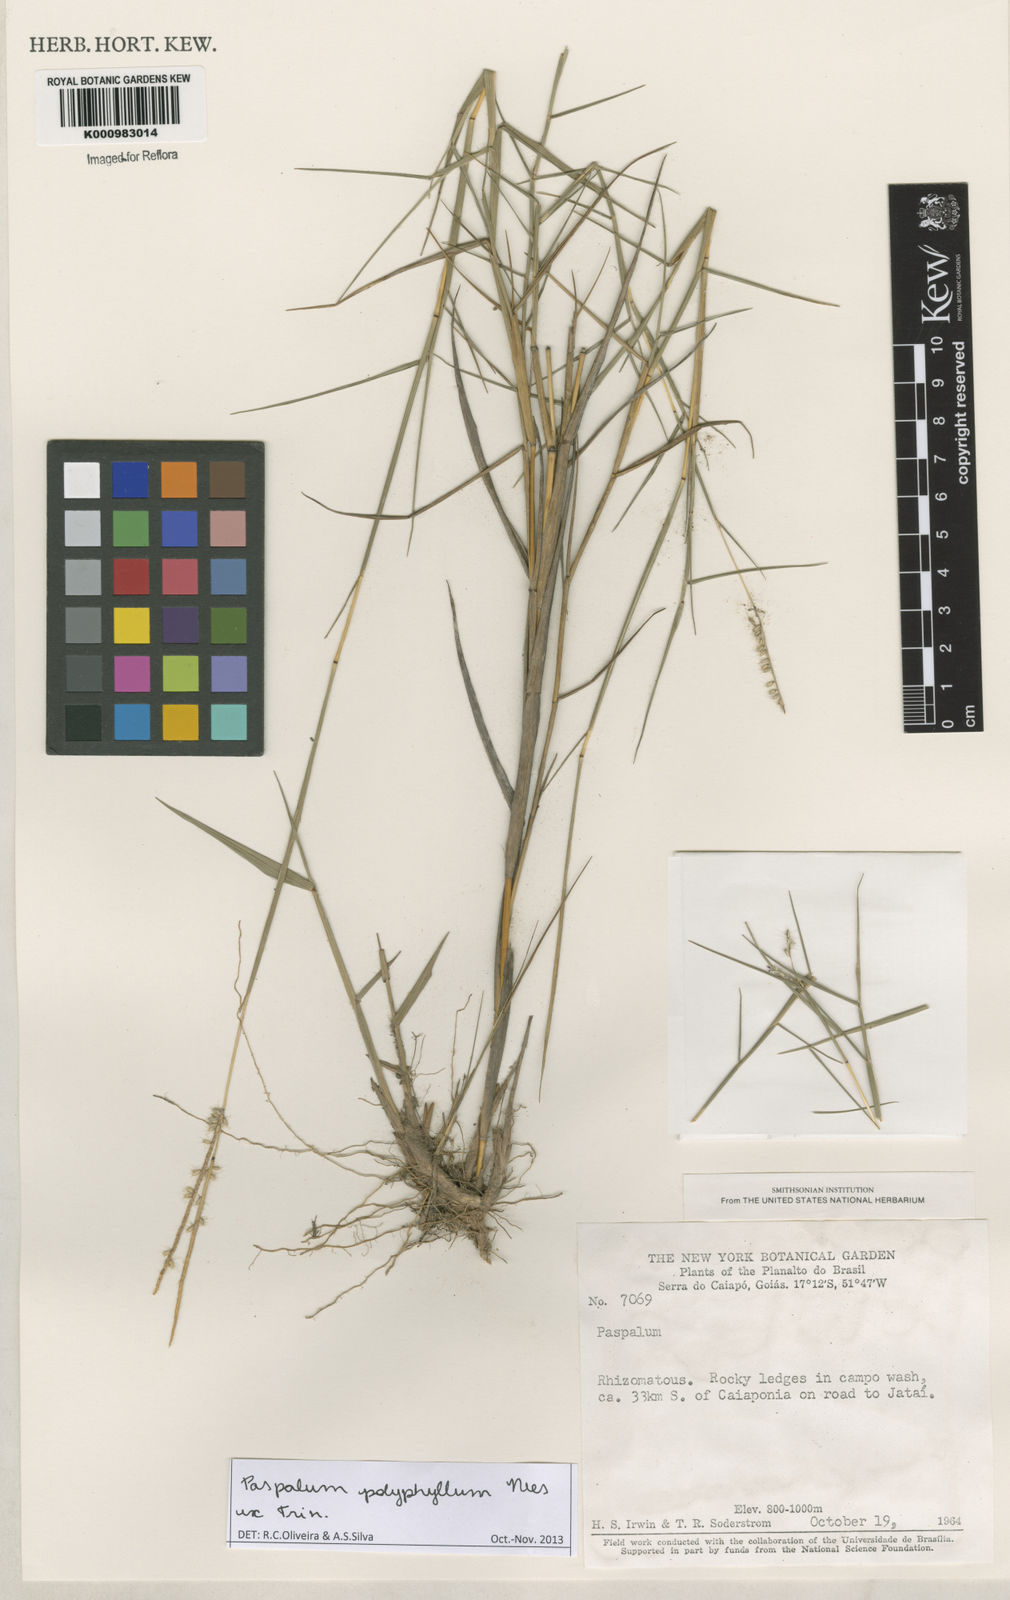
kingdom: Plantae
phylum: Tracheophyta
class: Liliopsida
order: Poales
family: Poaceae
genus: Paspalum
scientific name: Paspalum
